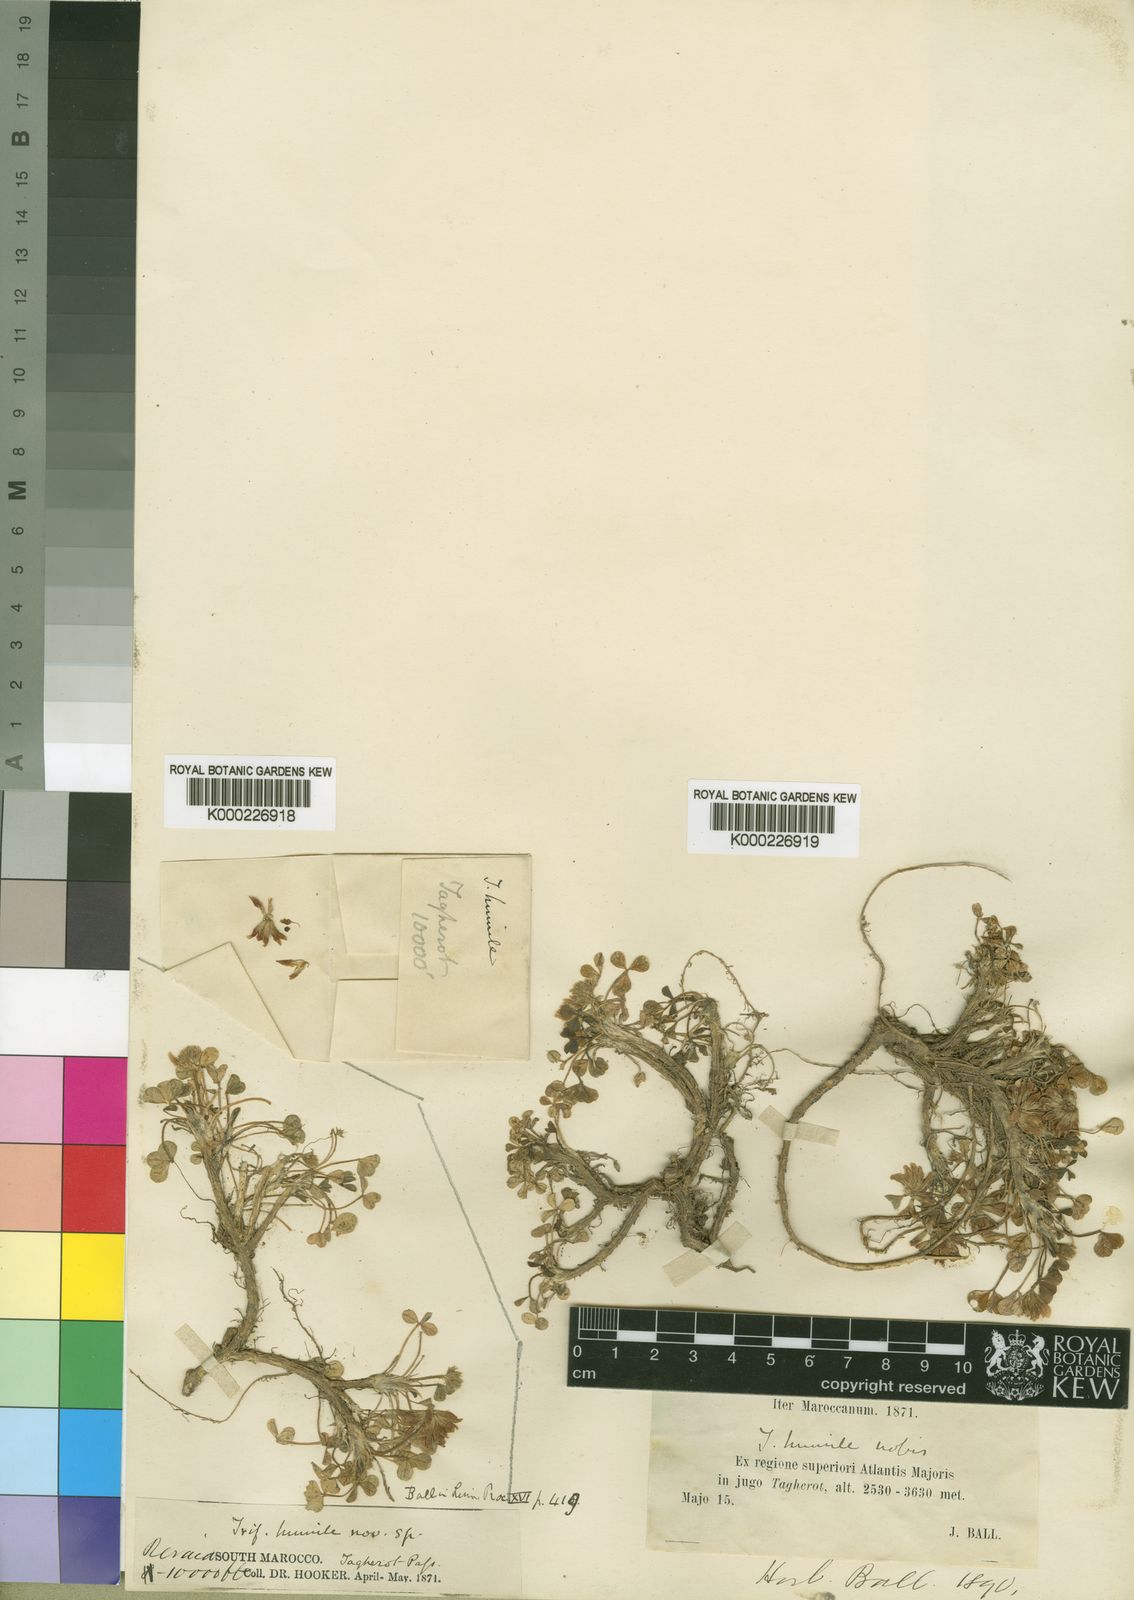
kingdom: Plantae
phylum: Tracheophyta
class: Magnoliopsida
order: Fabales
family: Fabaceae
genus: Trifolium
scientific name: Trifolium humile
